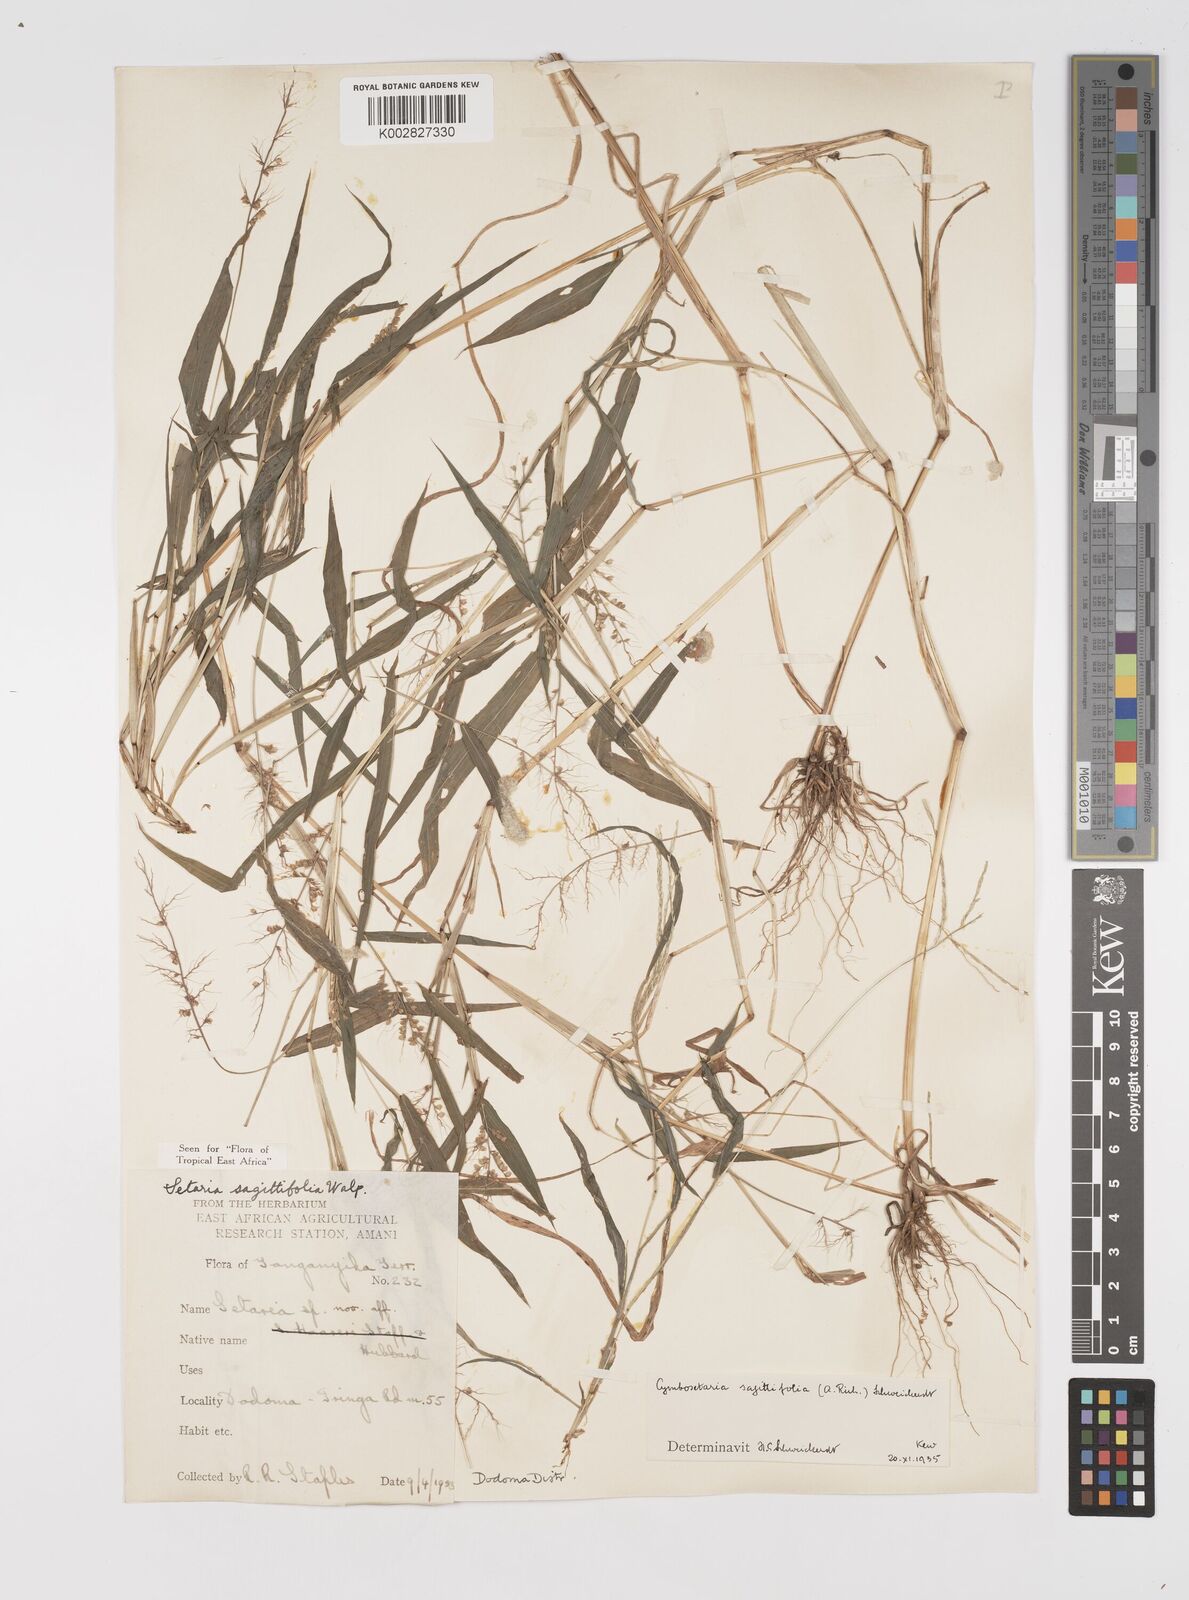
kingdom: Plantae
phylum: Tracheophyta
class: Liliopsida
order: Poales
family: Poaceae
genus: Setaria
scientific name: Setaria sagittifolia
